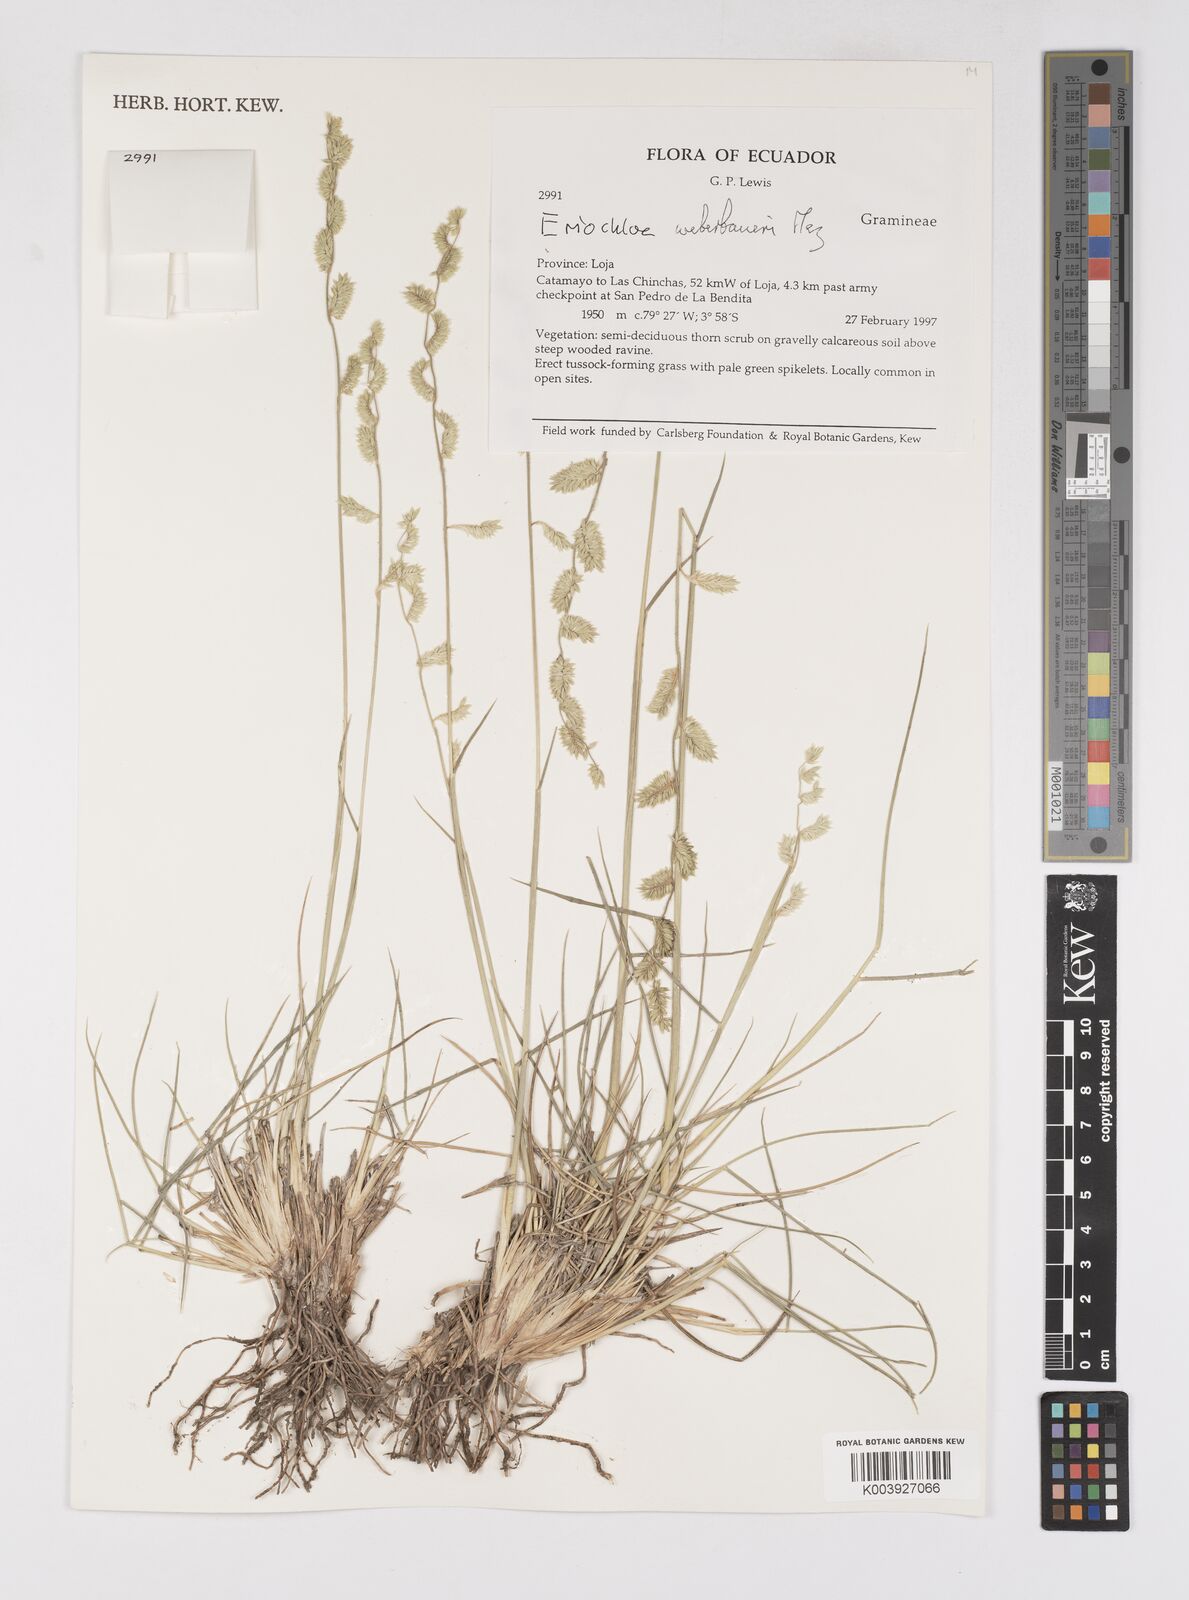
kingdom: Plantae
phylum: Tracheophyta
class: Liliopsida
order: Poales
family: Poaceae
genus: Eriochloa
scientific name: Eriochloa weberbaueri
